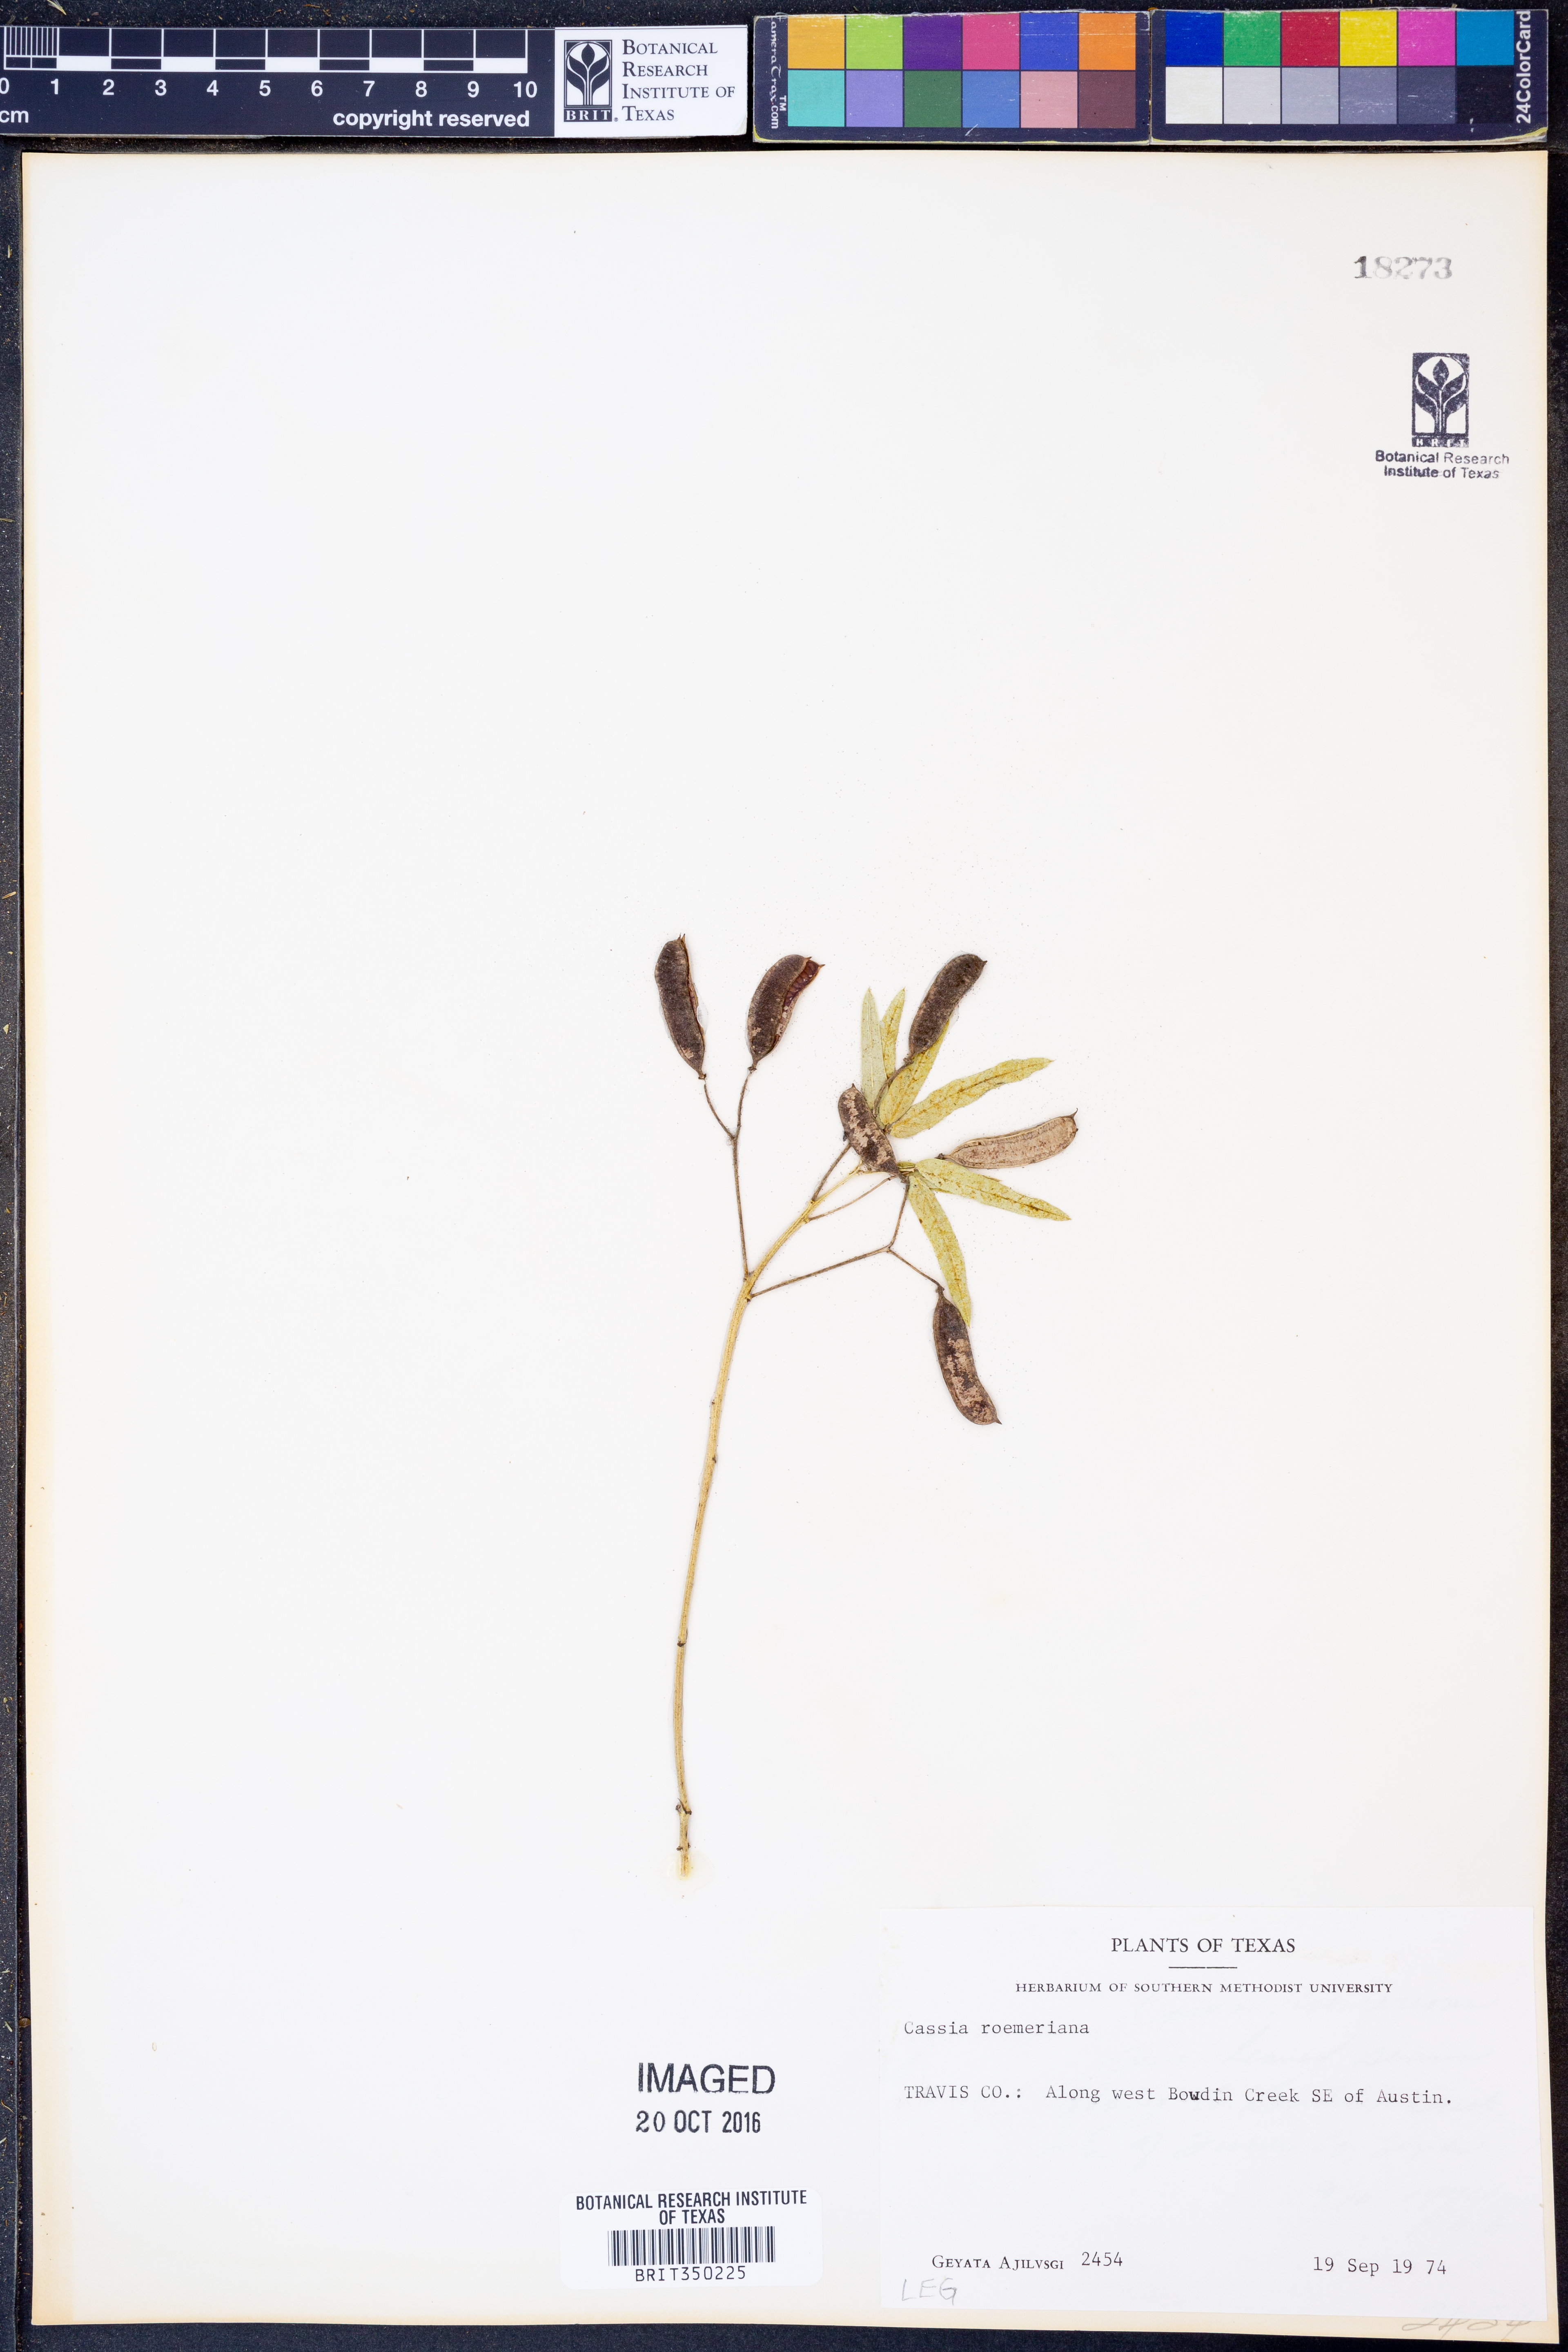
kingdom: Plantae
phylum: Tracheophyta
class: Magnoliopsida
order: Fabales
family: Fabaceae
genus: Senna
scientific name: Senna roemeriana
